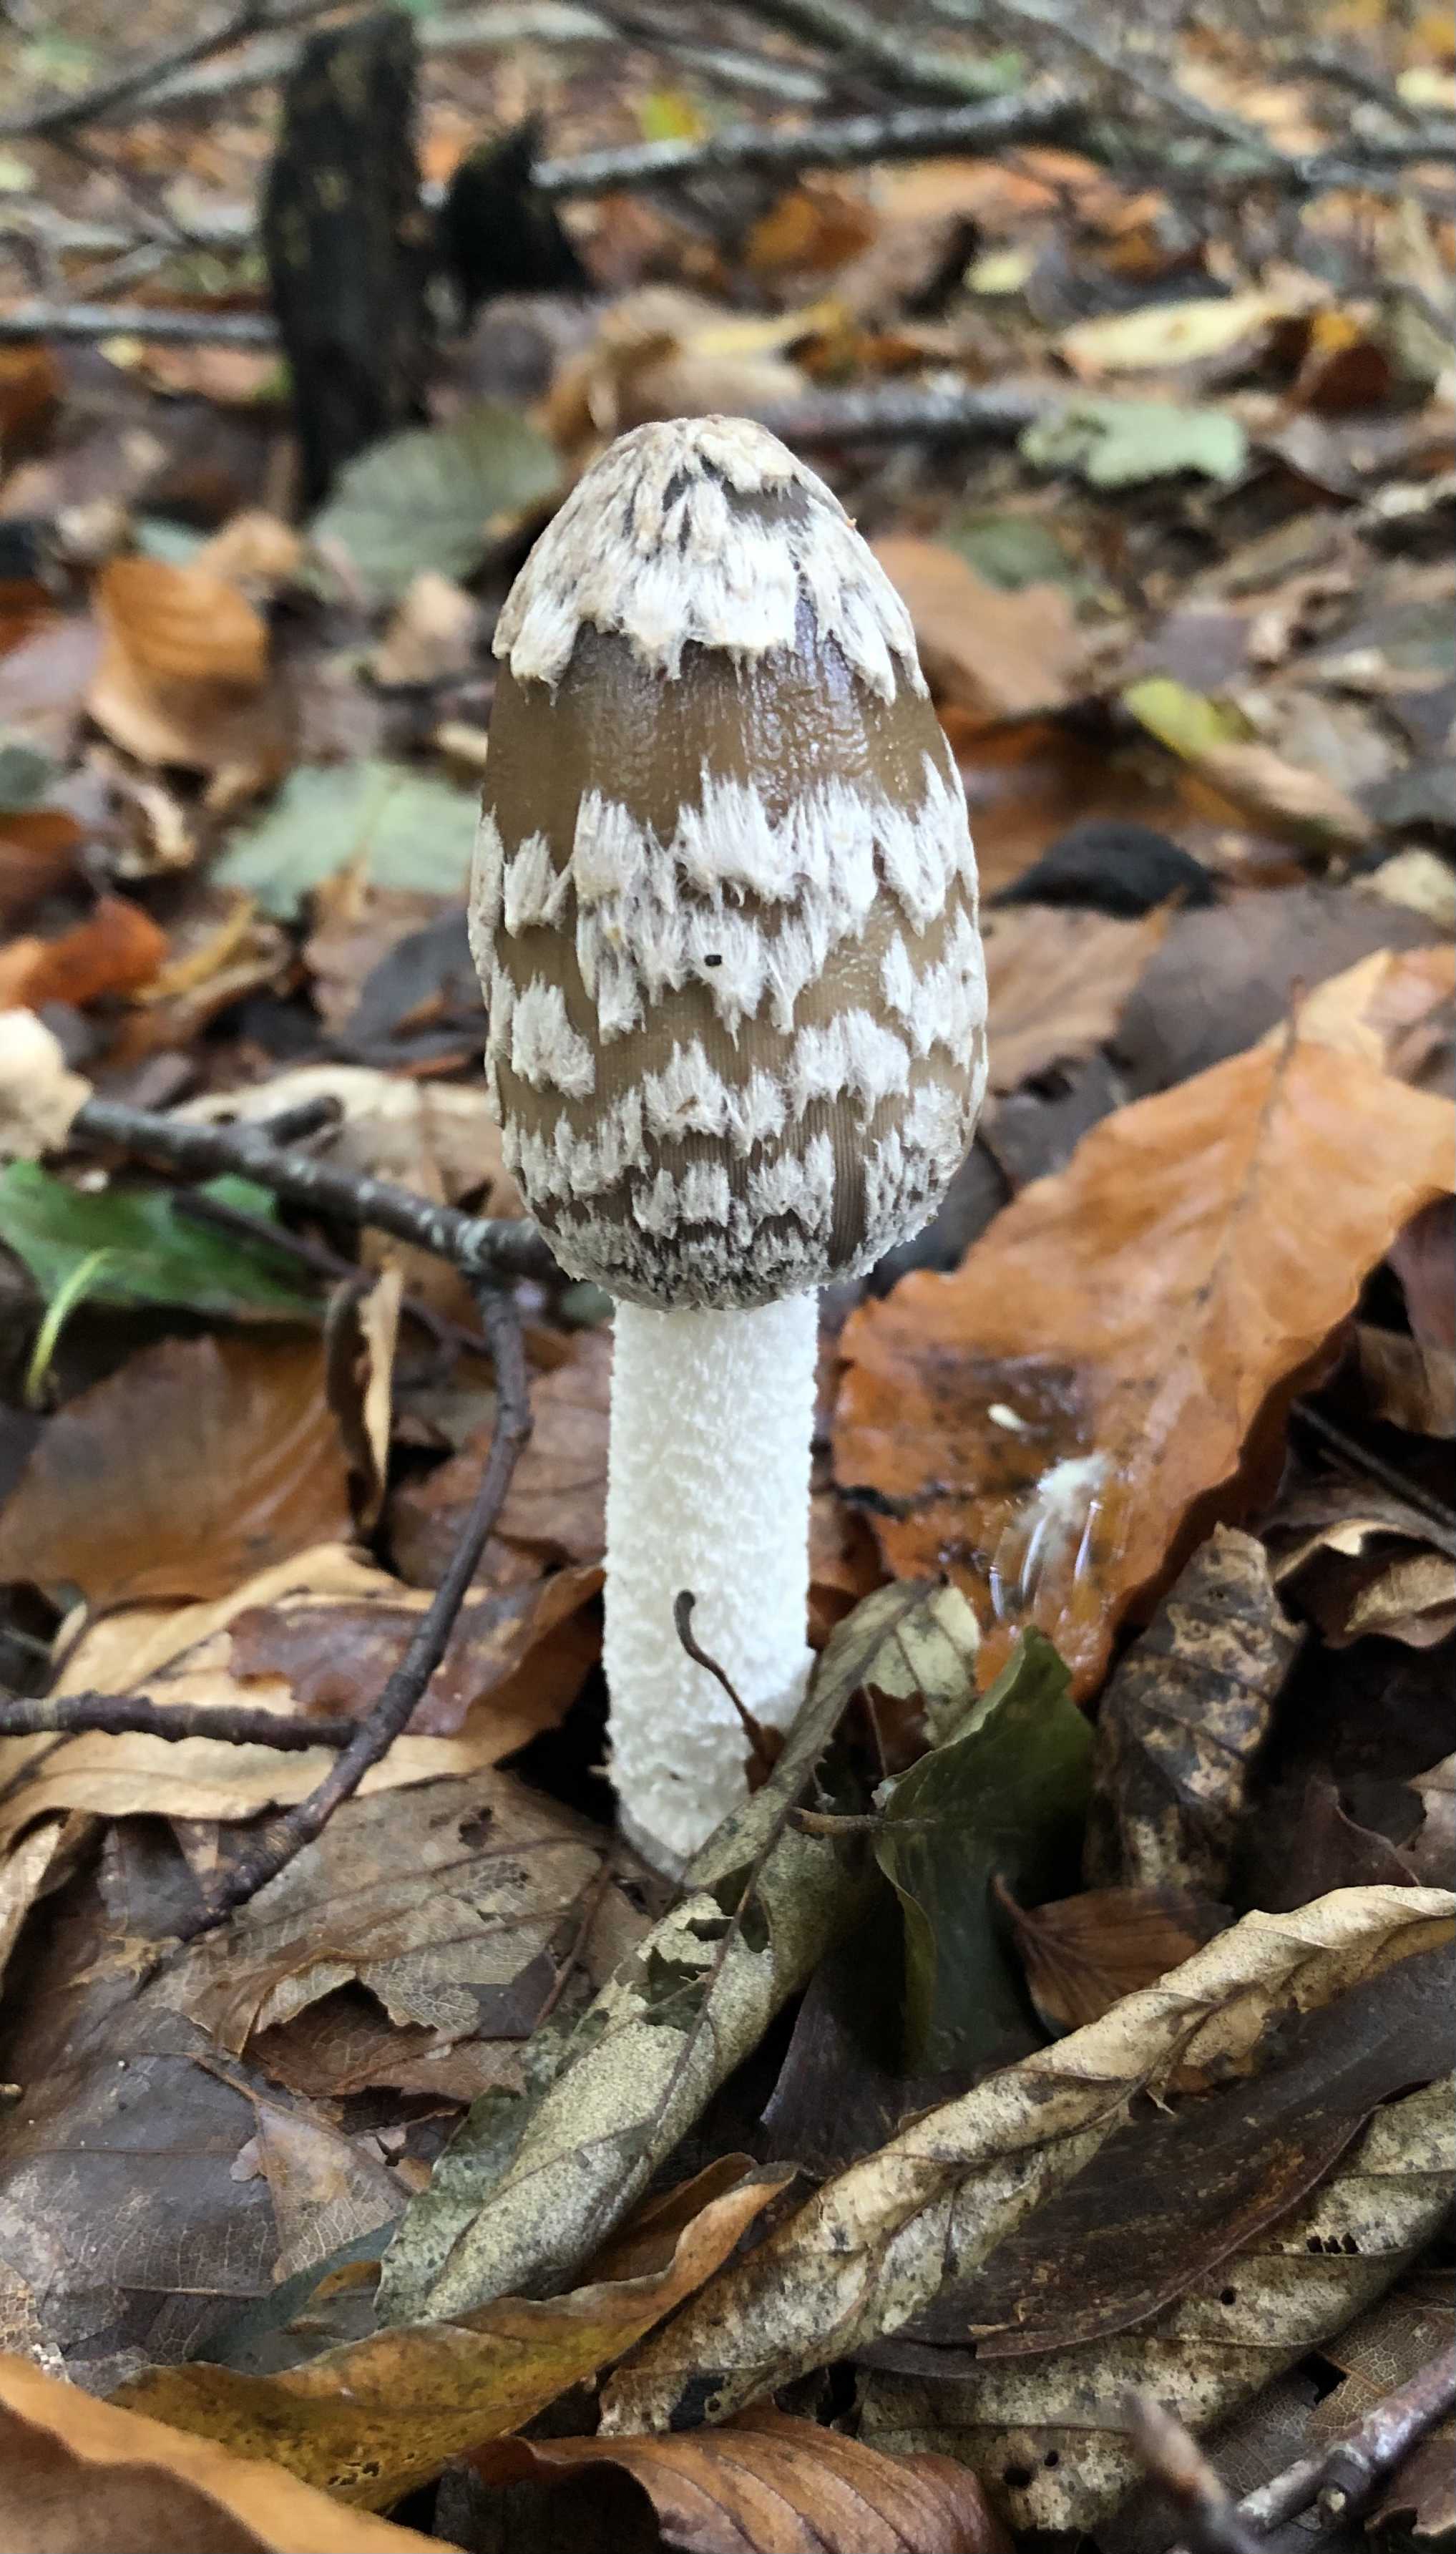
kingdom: Fungi
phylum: Basidiomycota
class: Agaricomycetes
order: Agaricales
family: Psathyrellaceae
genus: Coprinopsis
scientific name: Coprinopsis picacea
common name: skade-blækhat
